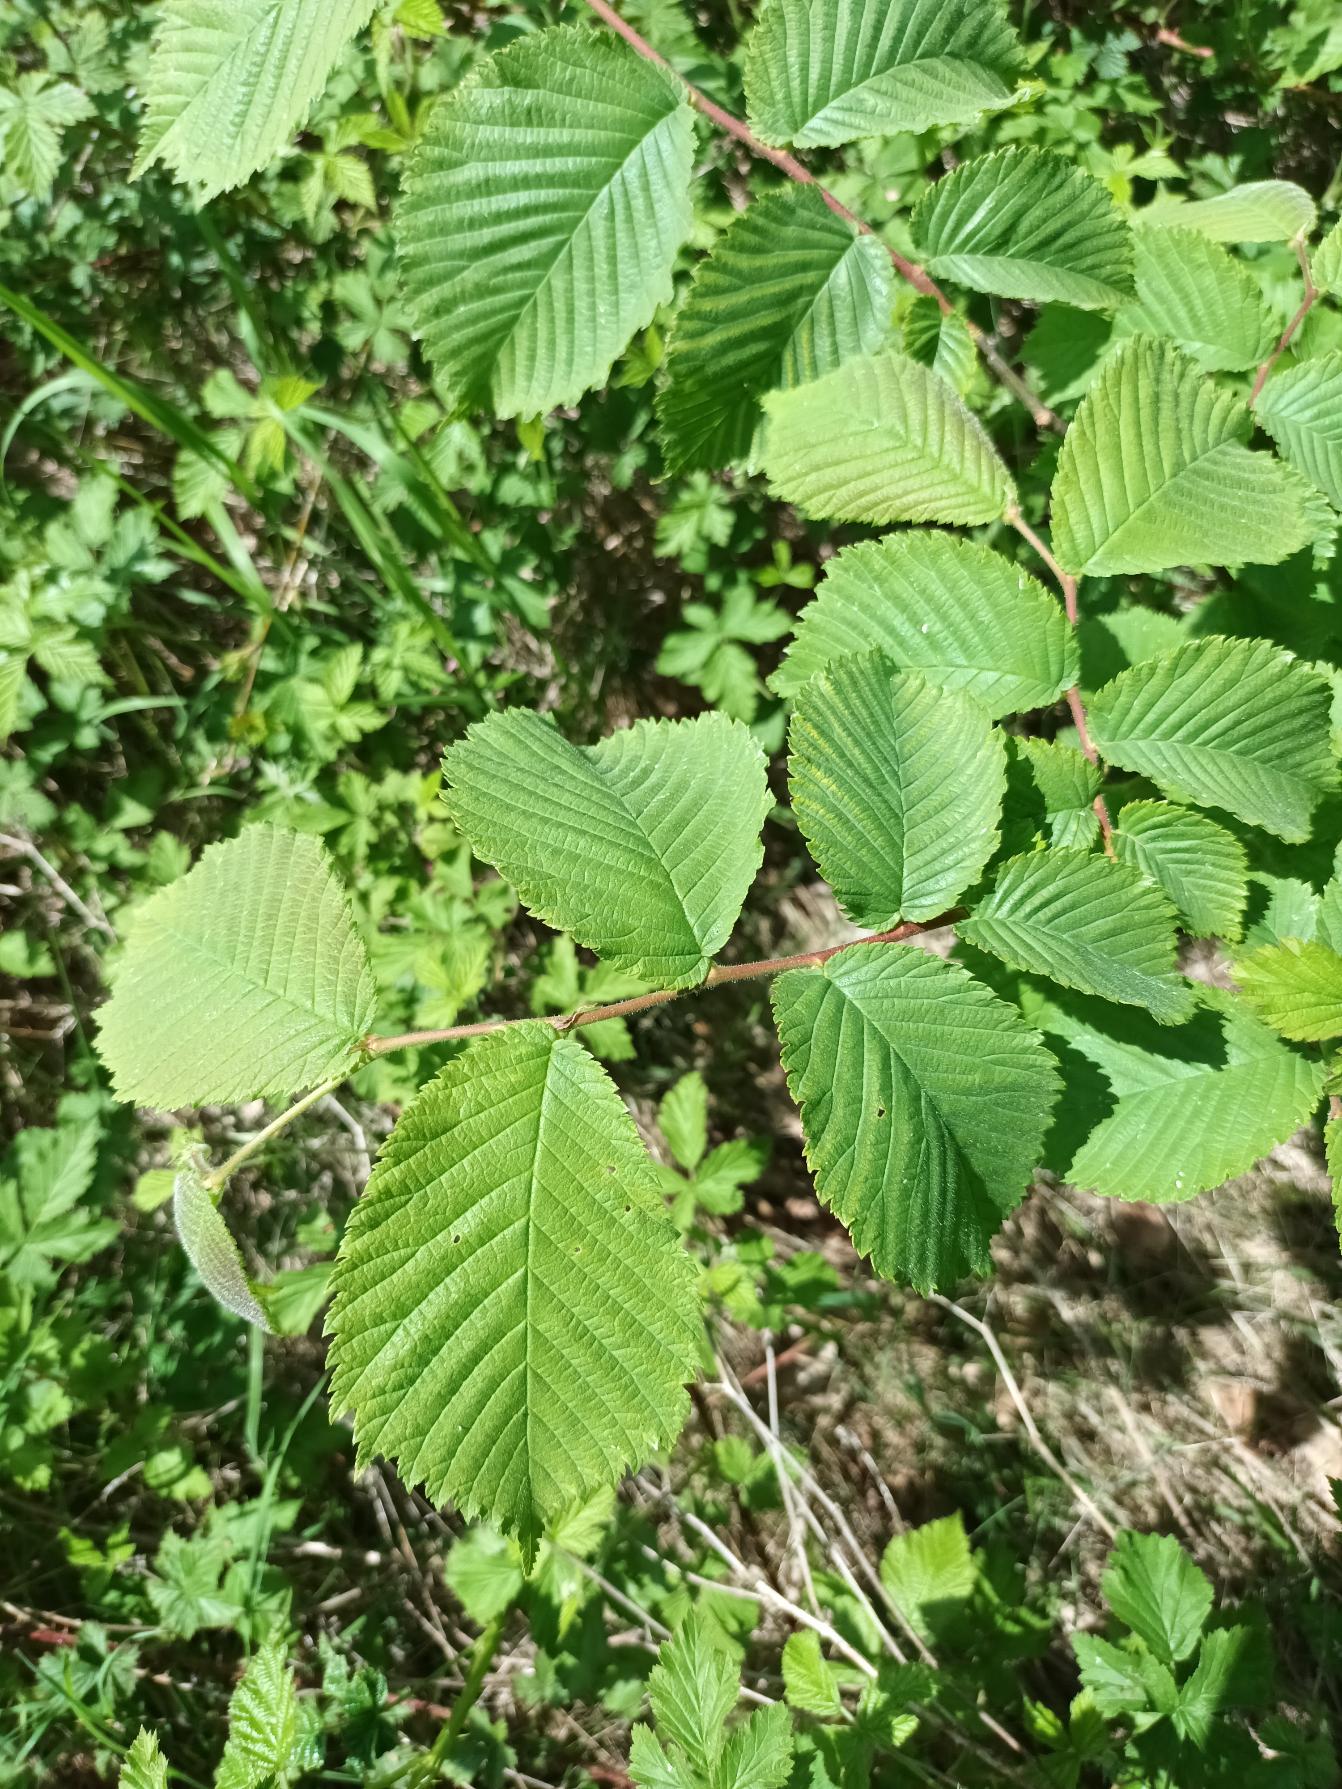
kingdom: Plantae
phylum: Tracheophyta
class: Magnoliopsida
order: Rosales
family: Ulmaceae
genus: Ulmus
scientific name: Ulmus glabra
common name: Skov-elm/storbladet elm
